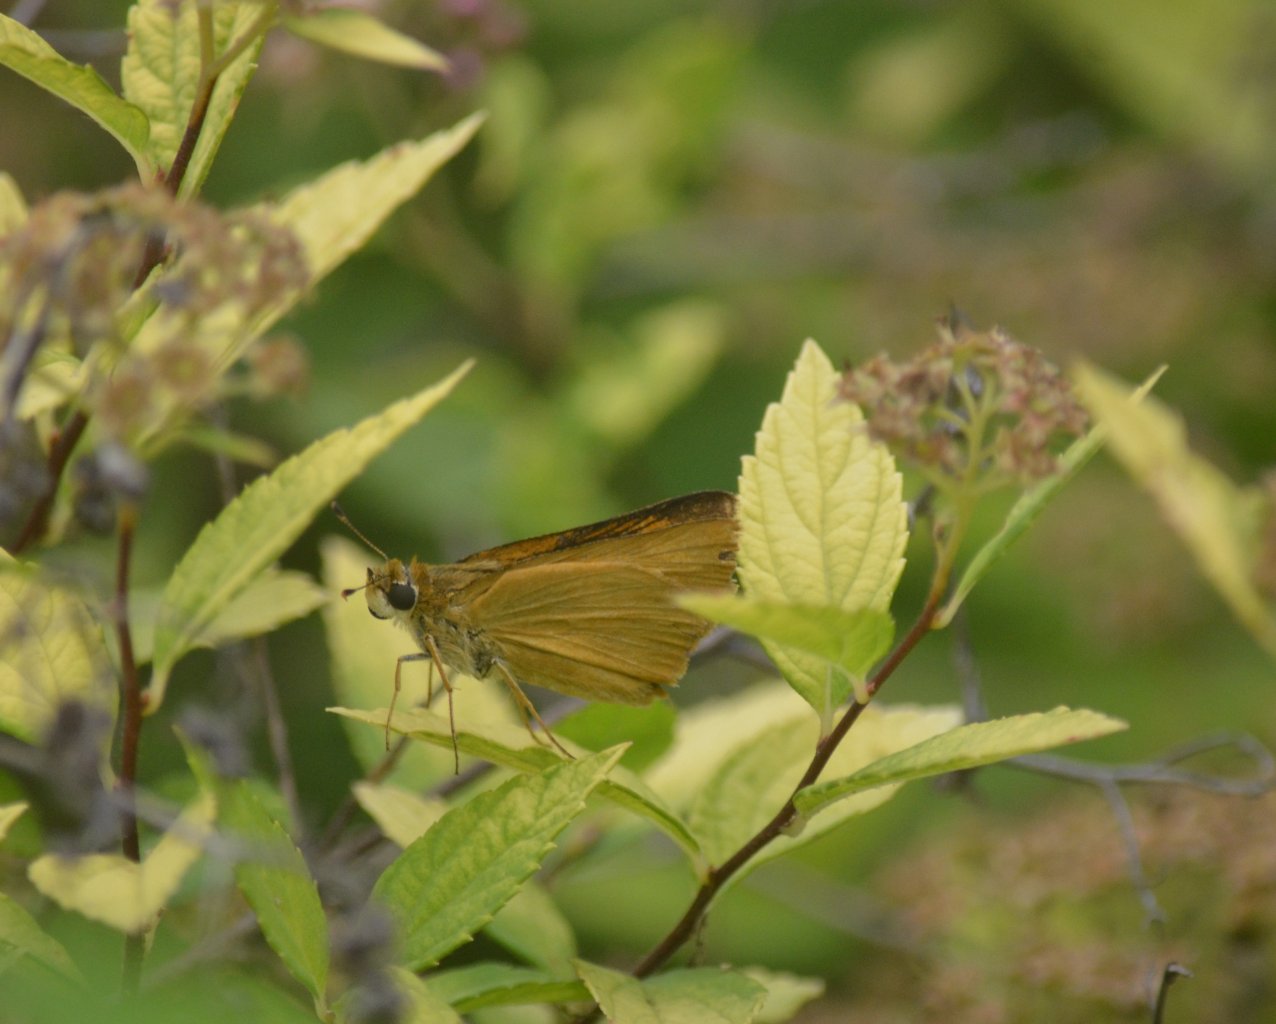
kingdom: Animalia
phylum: Arthropoda
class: Insecta
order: Lepidoptera
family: Hesperiidae
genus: Atrytone
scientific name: Atrytone delaware
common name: Delaware Skipper
